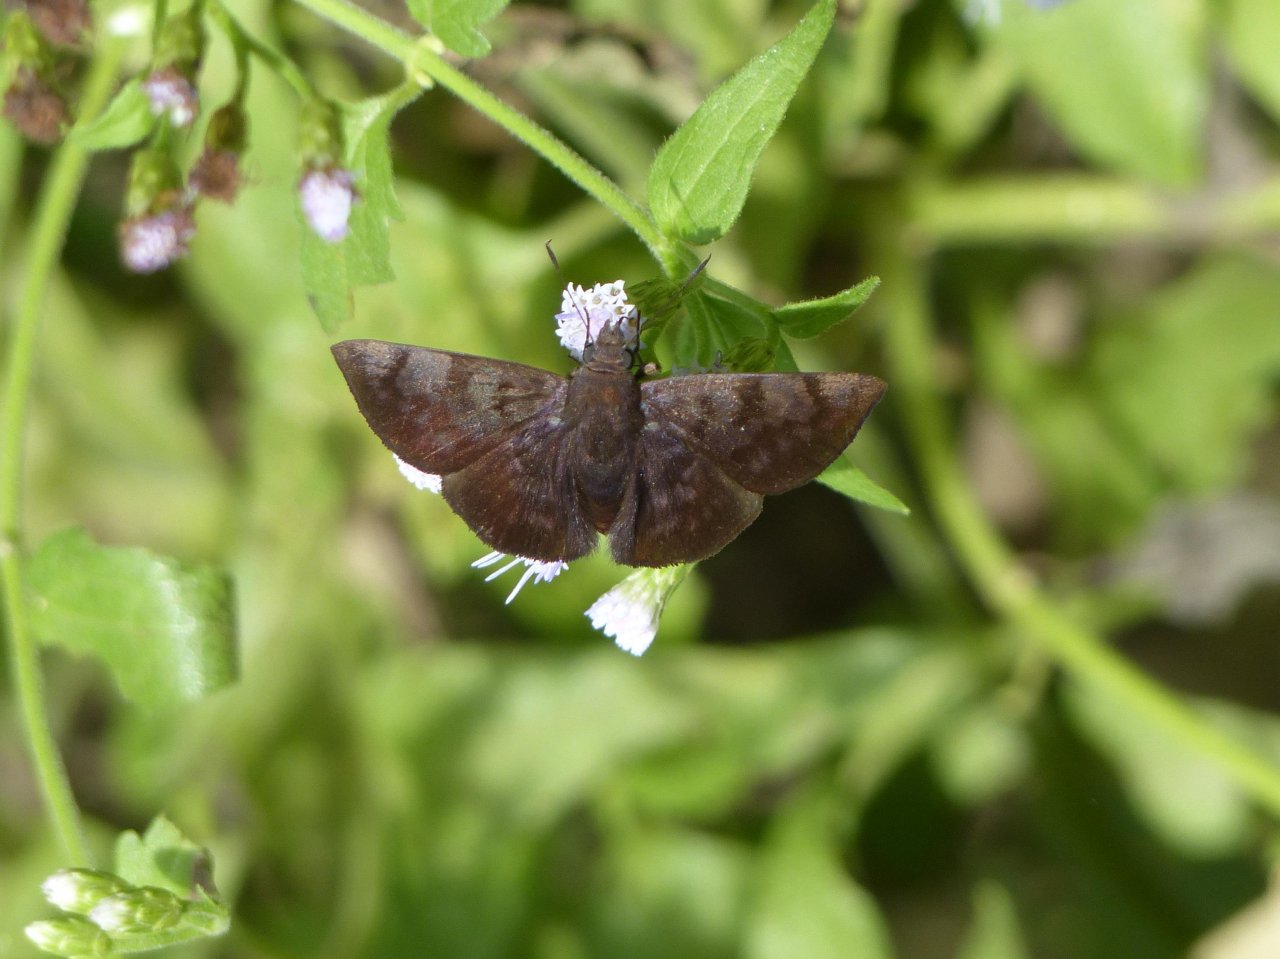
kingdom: Animalia
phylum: Arthropoda
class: Insecta
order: Lepidoptera
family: Hesperiidae
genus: Pellicia
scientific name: Pellicia costimacula
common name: Glazed Pellicia
